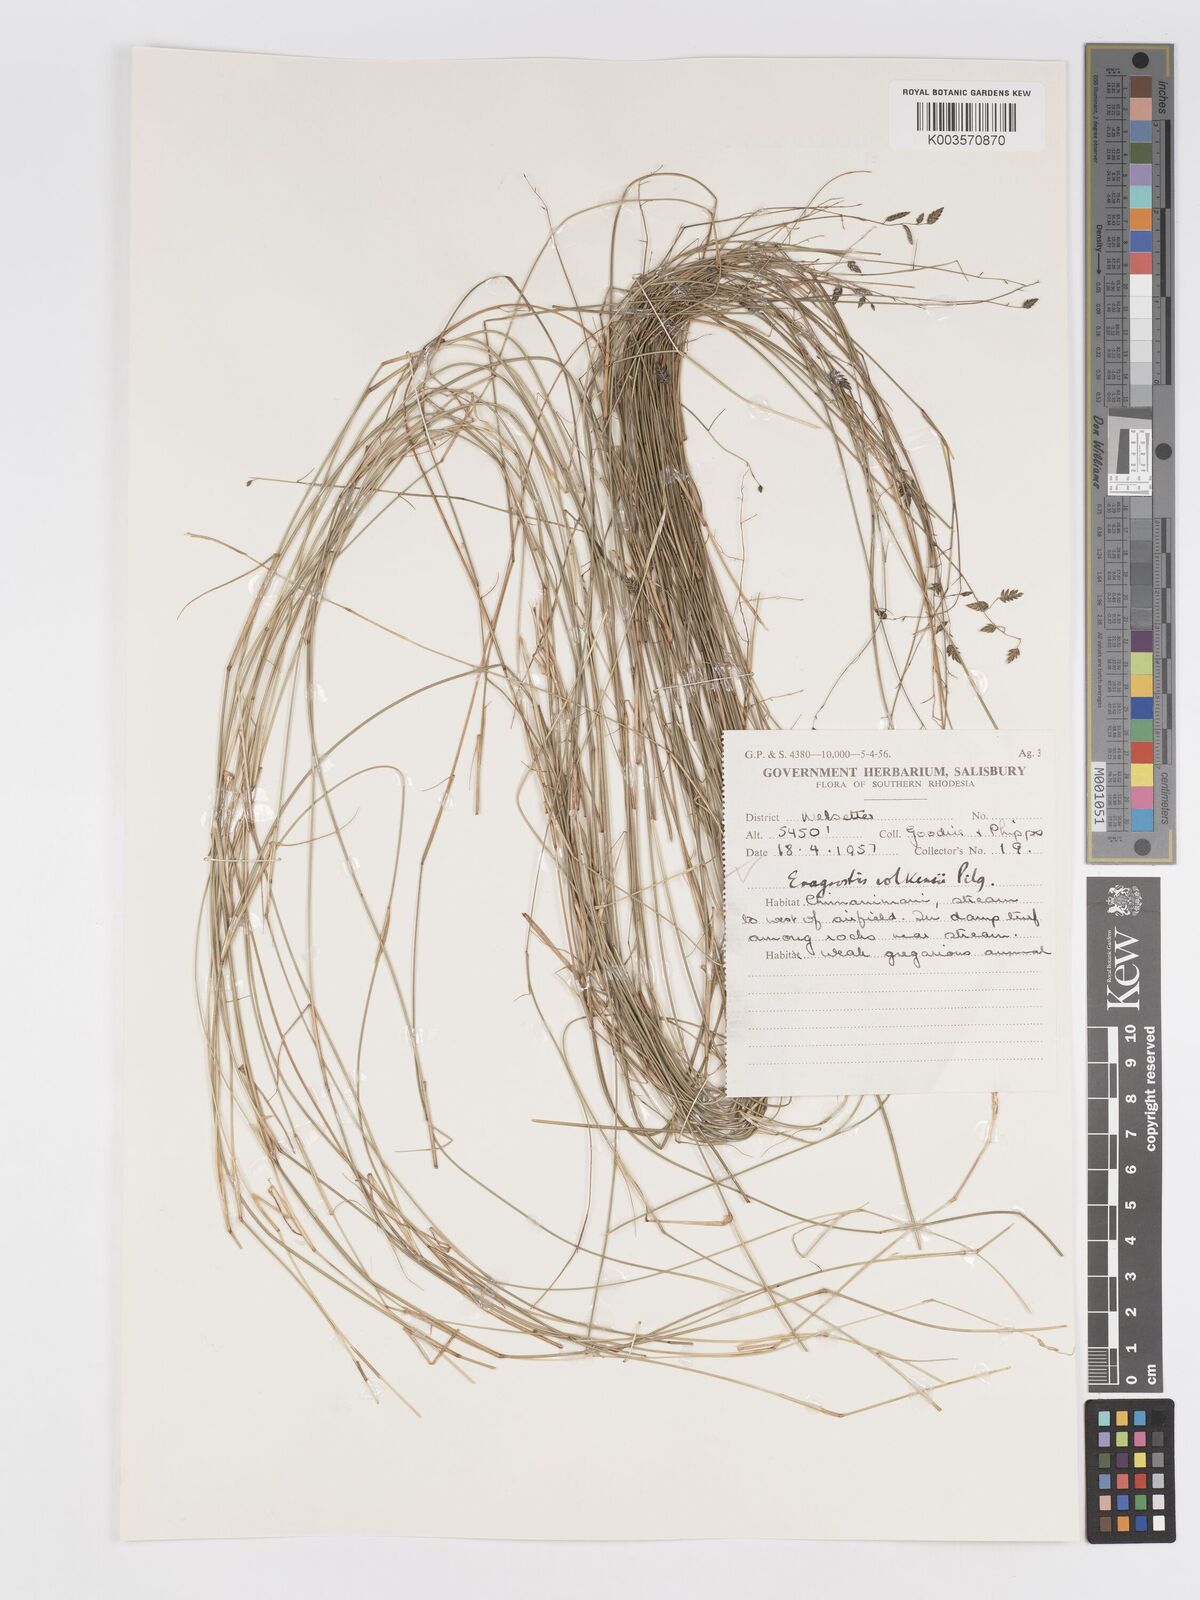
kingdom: Plantae
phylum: Tracheophyta
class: Liliopsida
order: Poales
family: Poaceae
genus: Eragrostis
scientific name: Eragrostis volkensii
